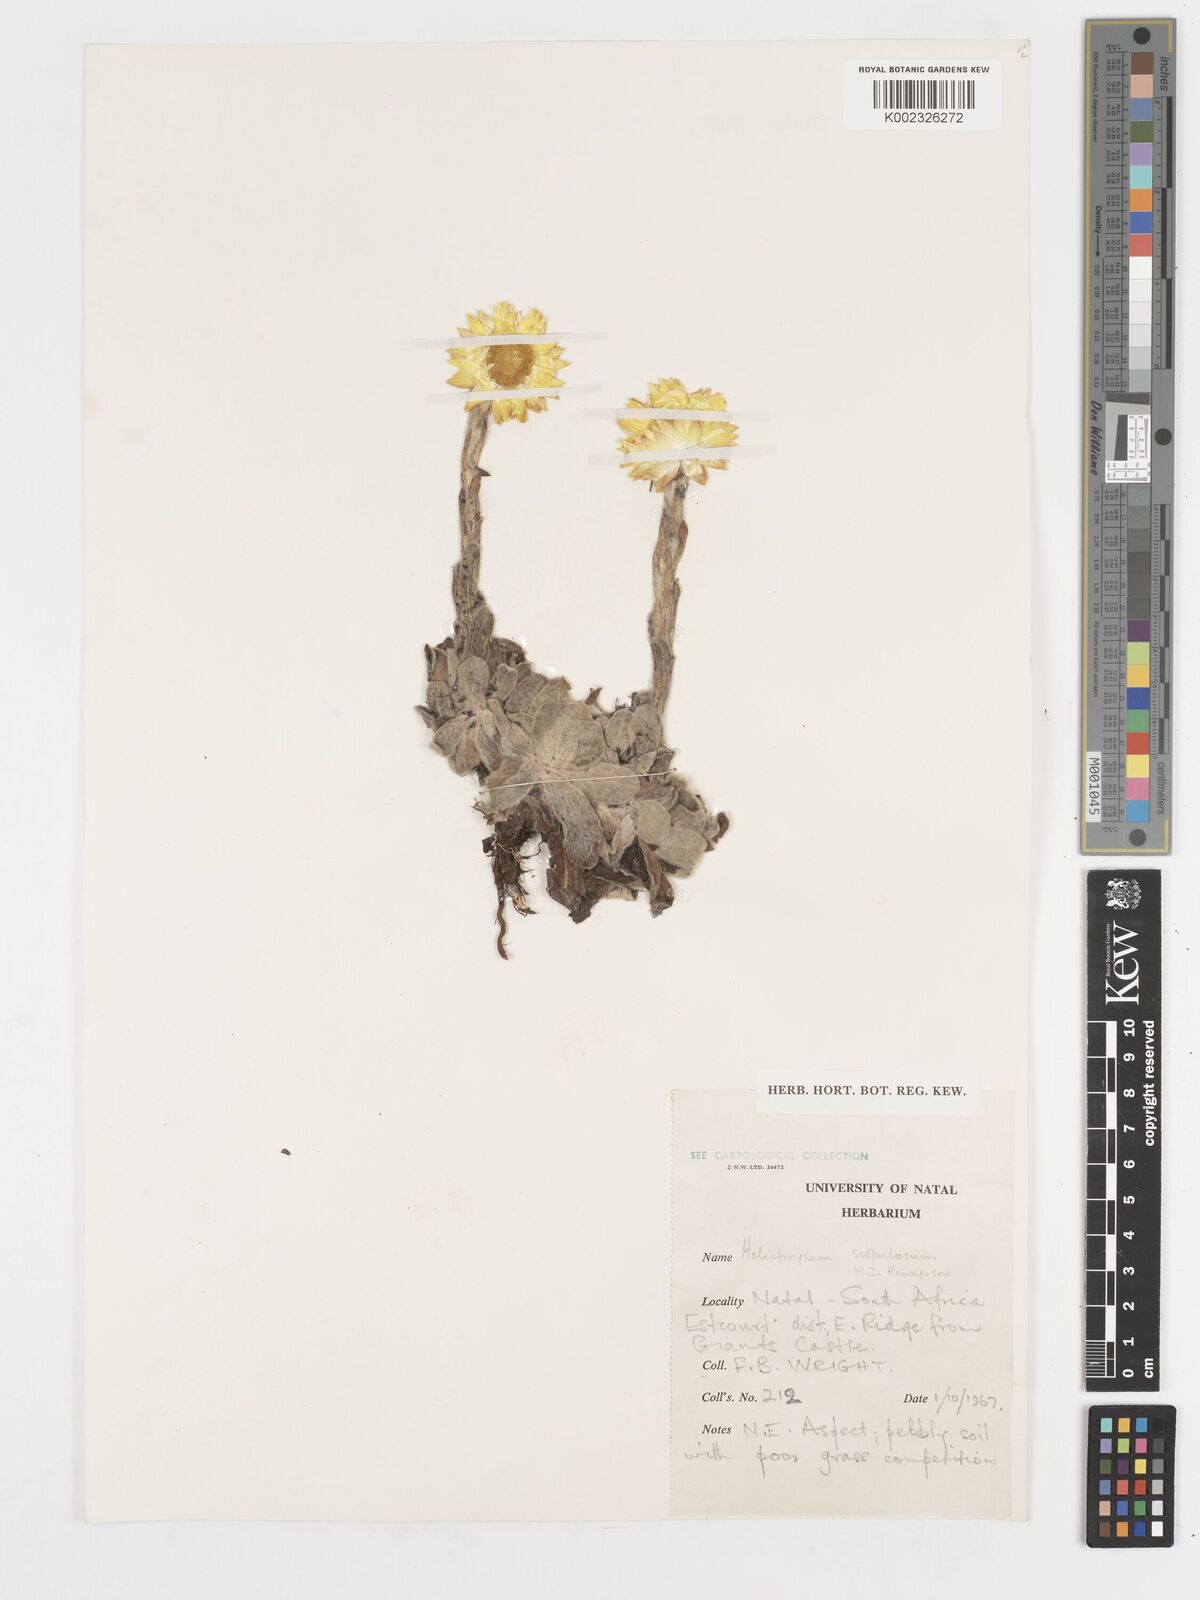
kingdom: Plantae
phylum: Tracheophyta
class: Magnoliopsida
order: Asterales
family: Asteraceae
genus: Helichrysum
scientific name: Helichrysum aureum
